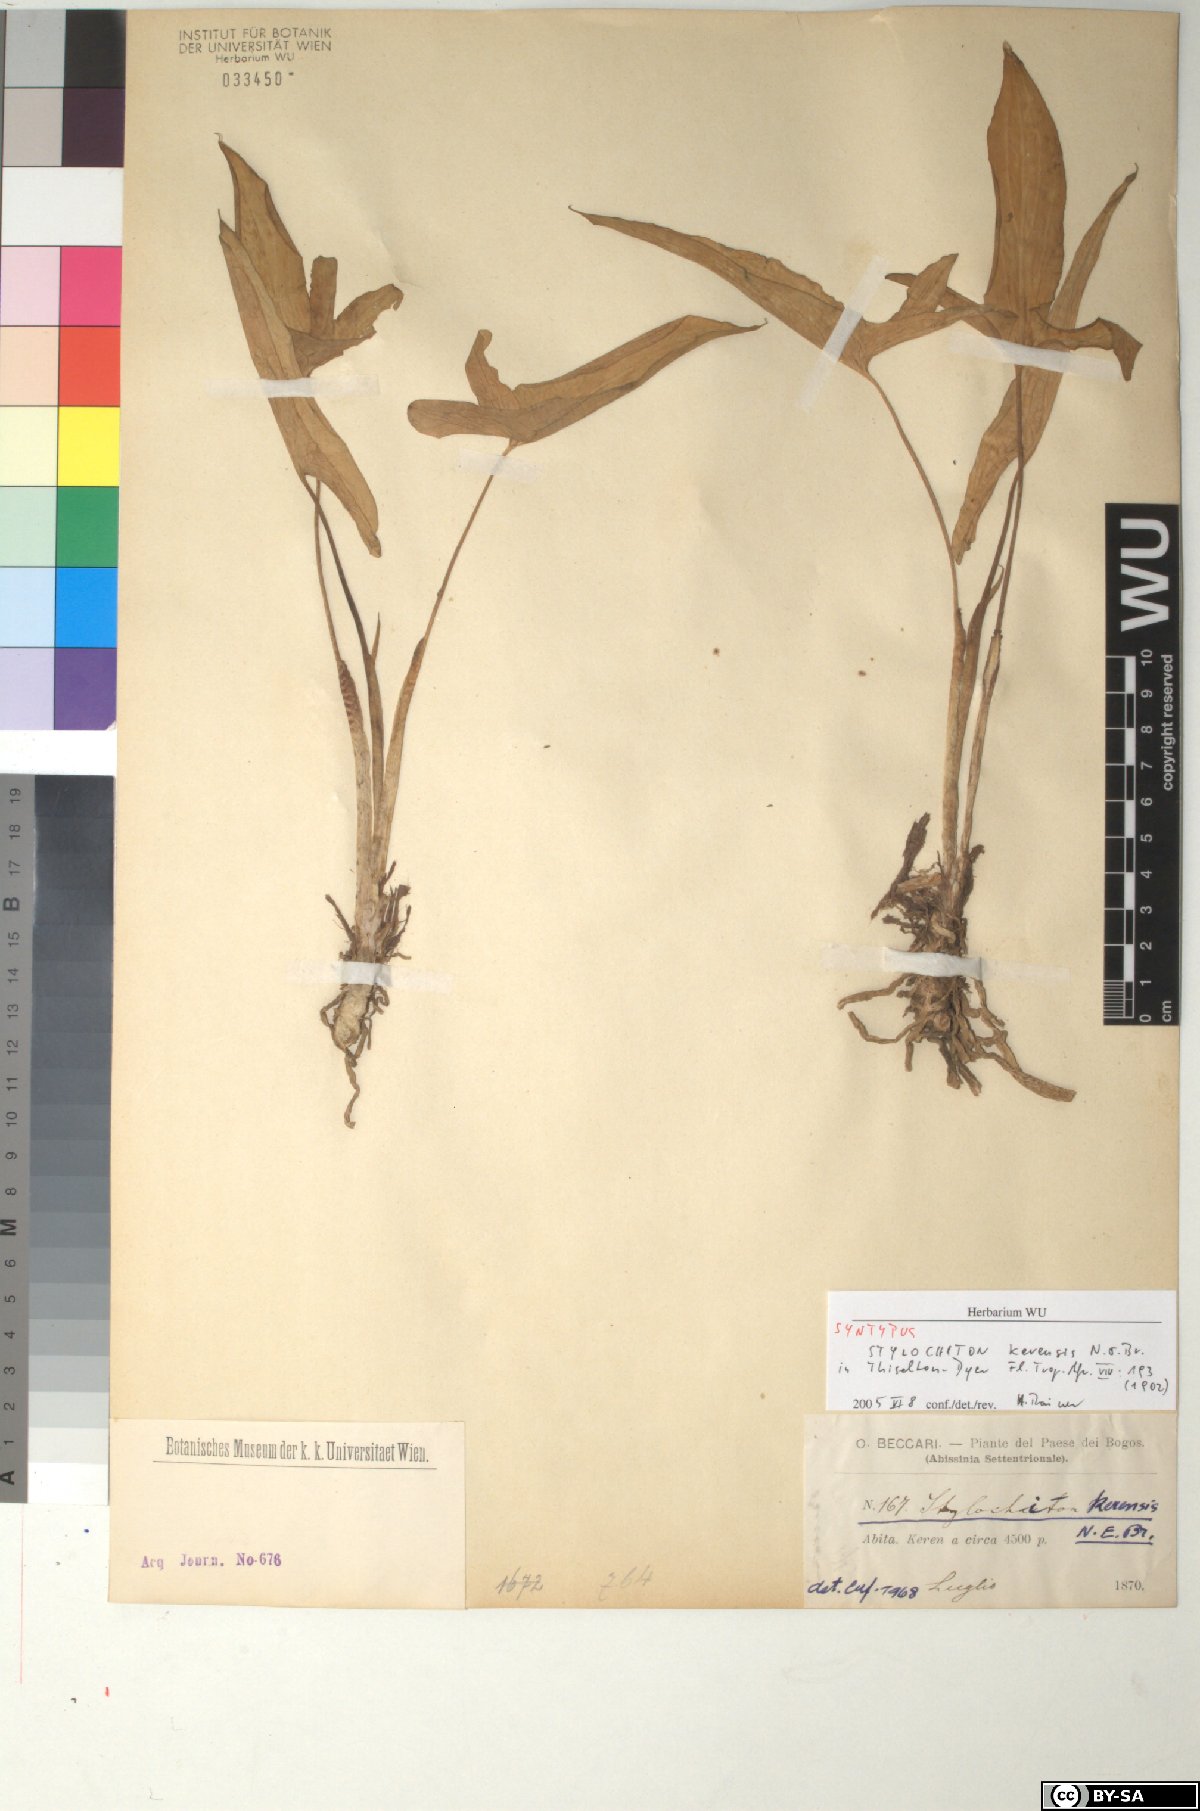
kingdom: Plantae
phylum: Tracheophyta
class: Liliopsida
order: Alismatales
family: Araceae
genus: Stylochaeton
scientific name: Stylochaeton kerensis
